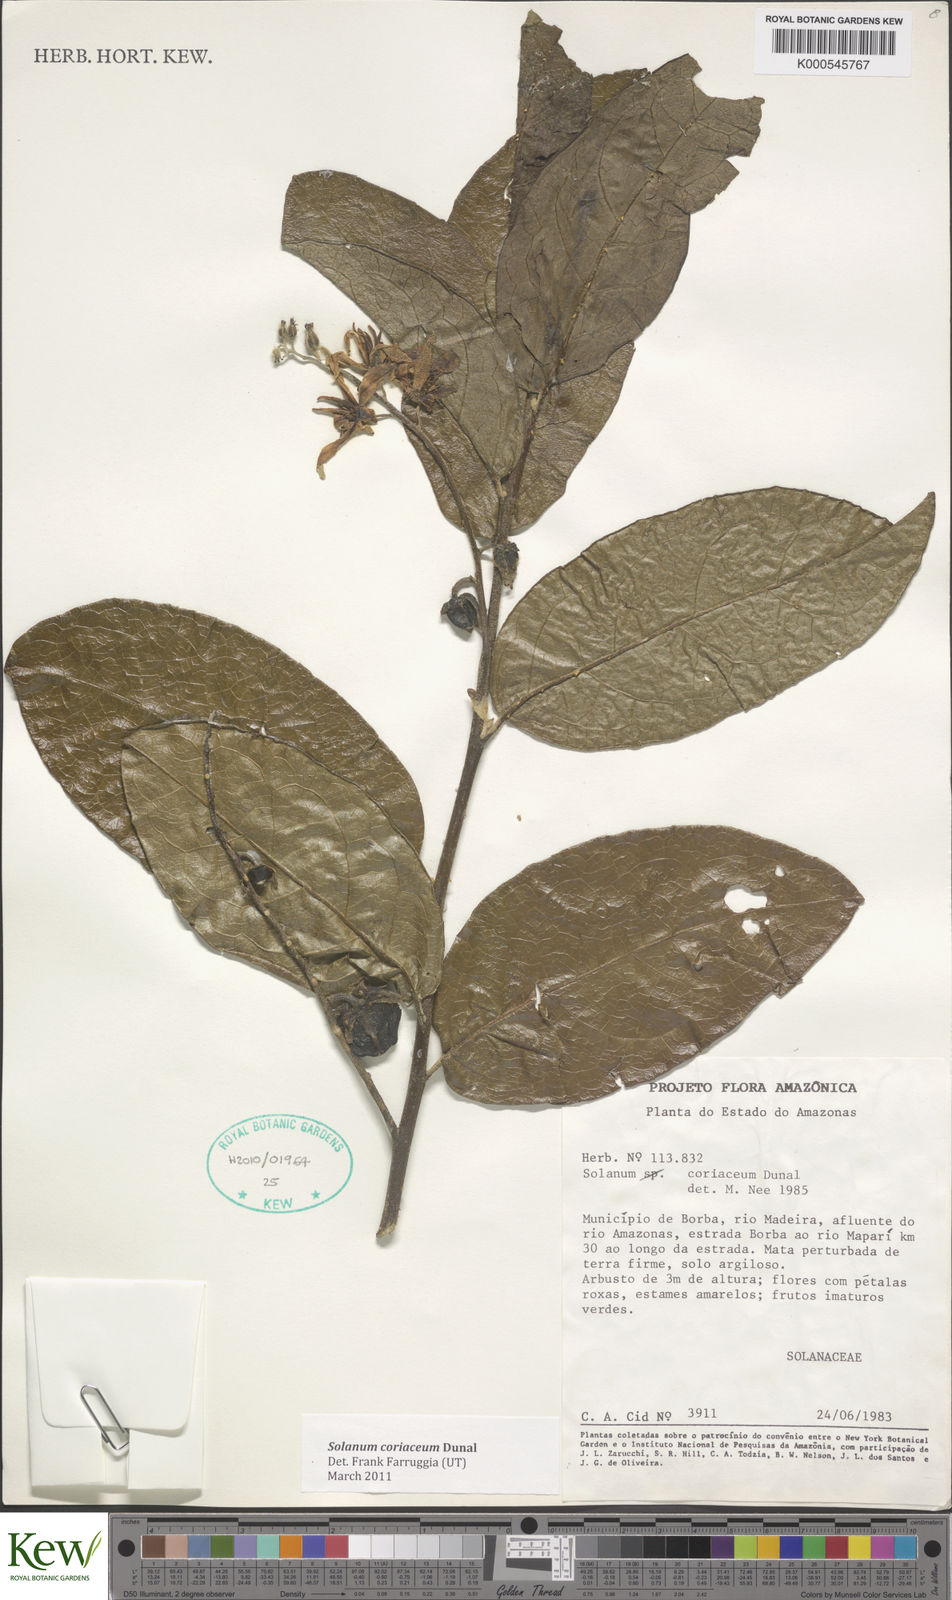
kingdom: Plantae
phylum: Tracheophyta
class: Magnoliopsida
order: Solanales
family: Solanaceae
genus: Solanum
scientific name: Solanum coriaceum
